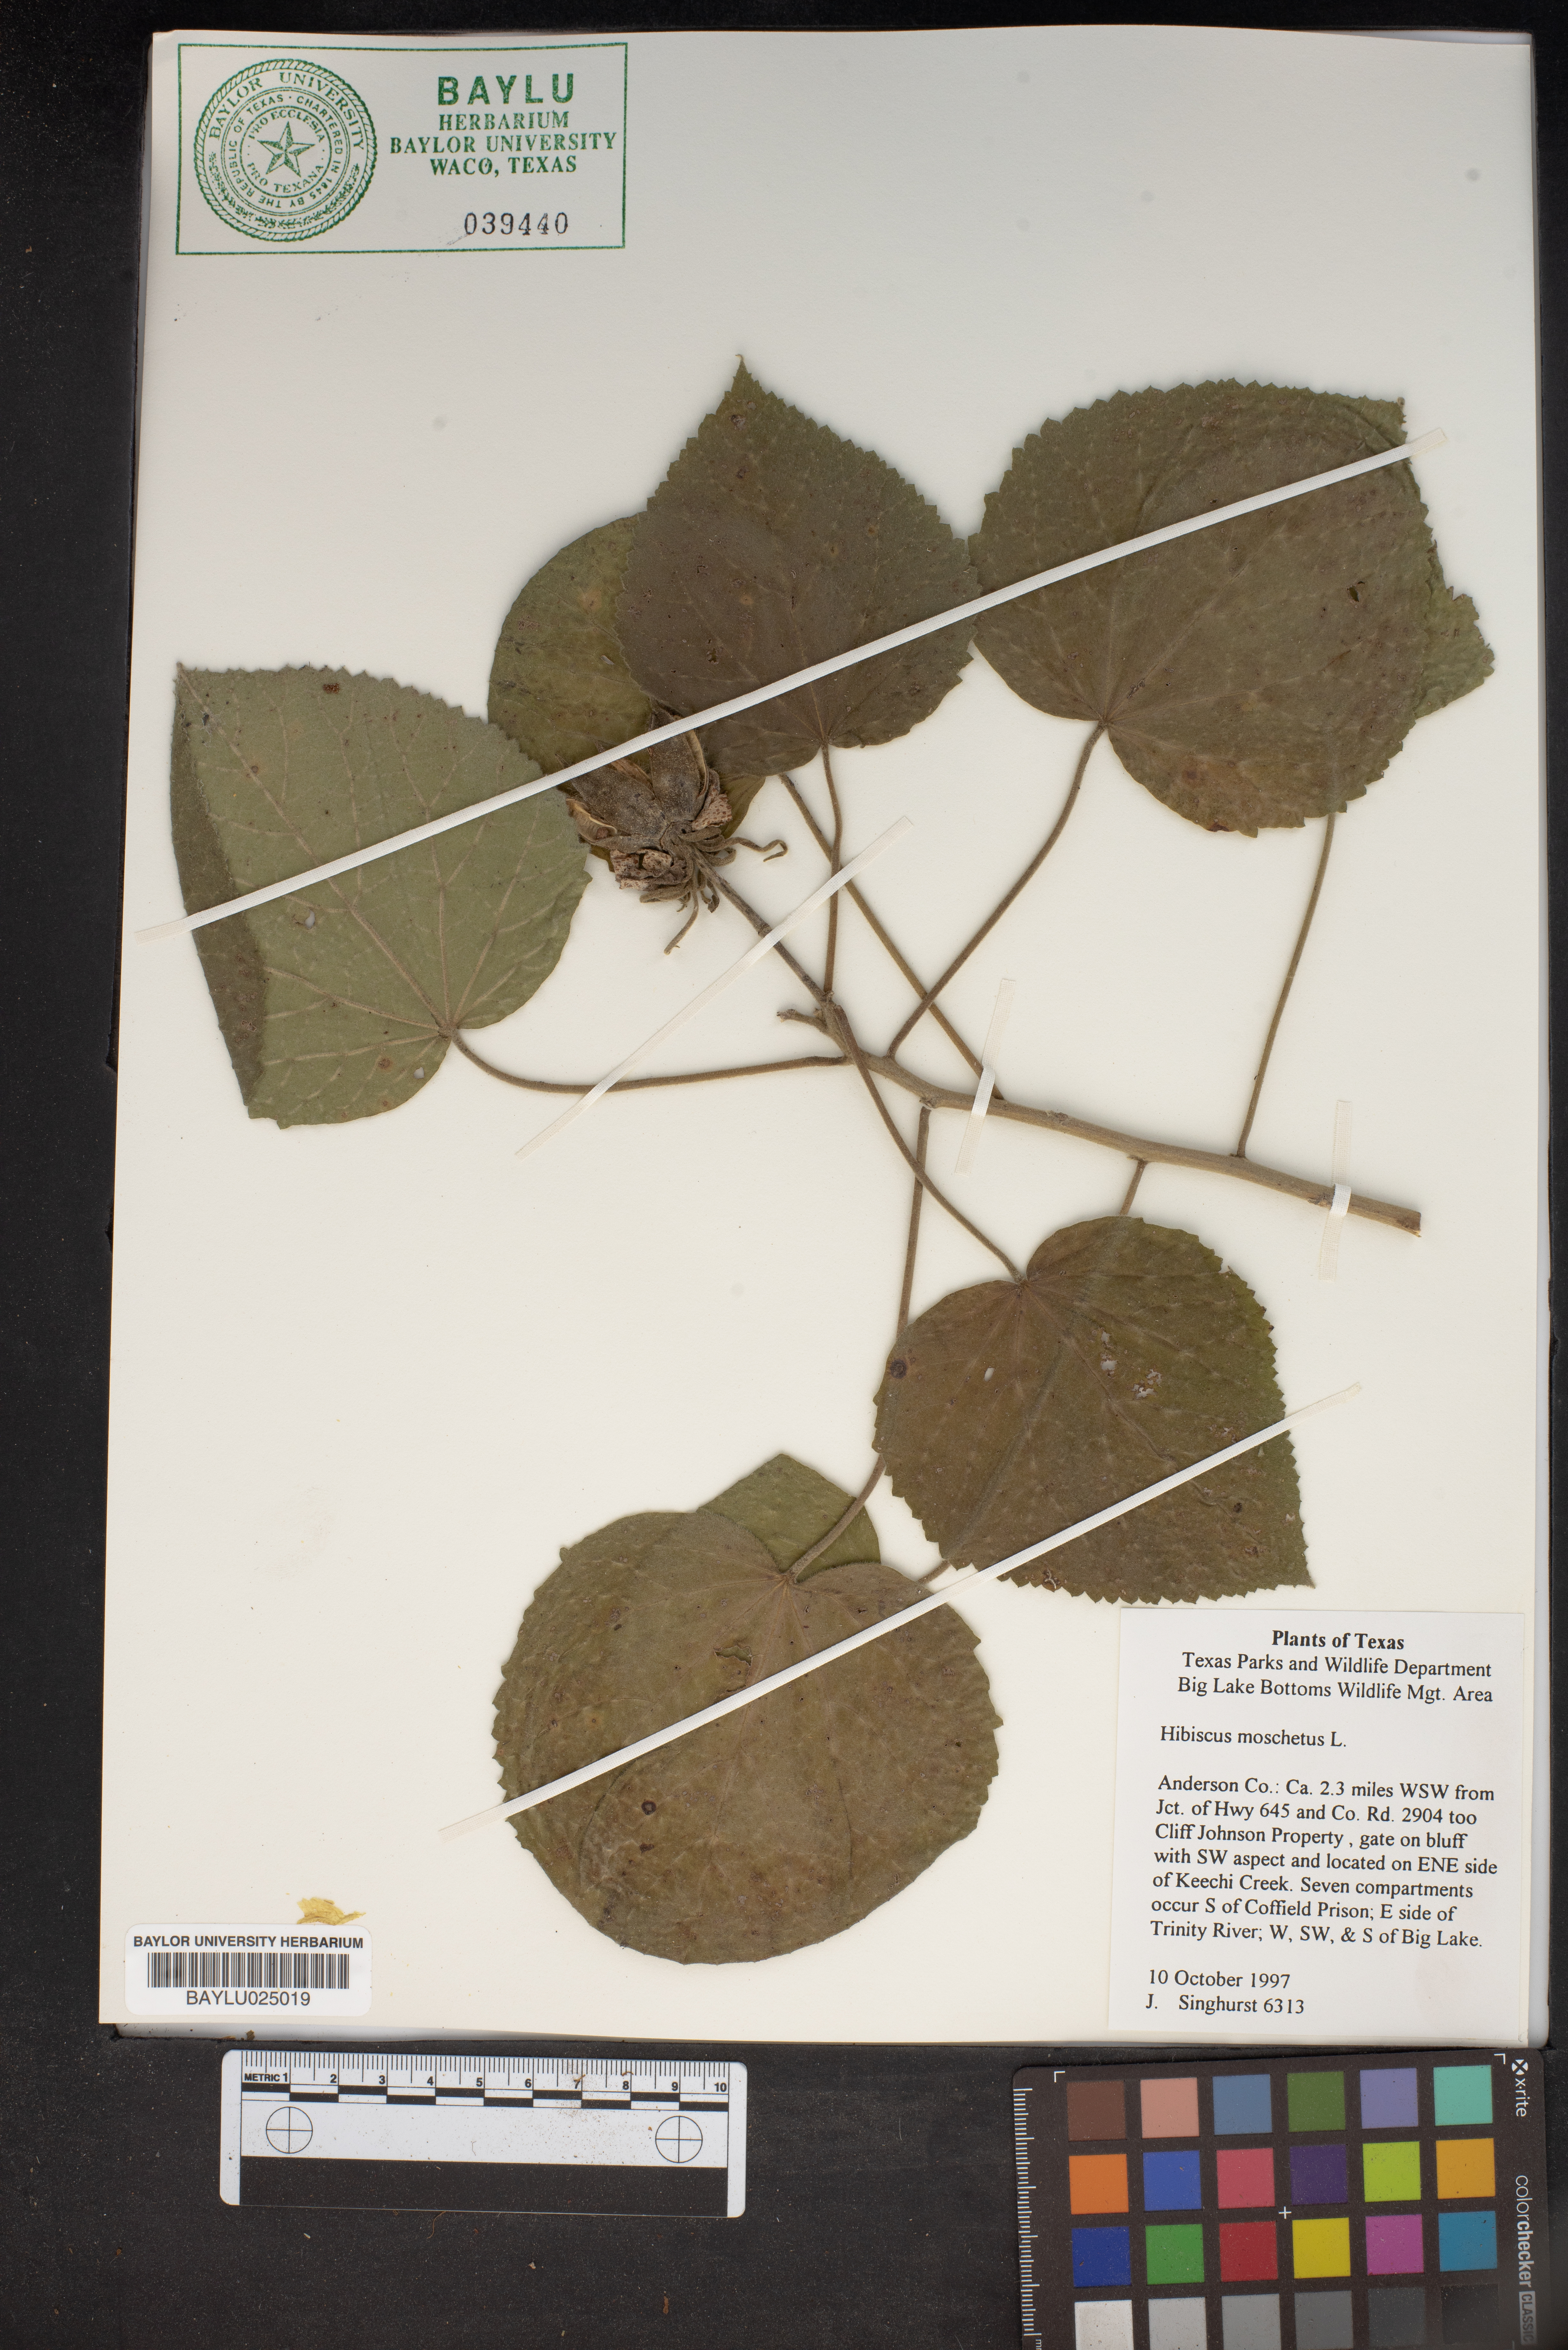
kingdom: Plantae
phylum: Tracheophyta
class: Magnoliopsida
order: Malvales
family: Malvaceae
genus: Hibiscus
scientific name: Hibiscus moscheutos
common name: Common rose-mallow
